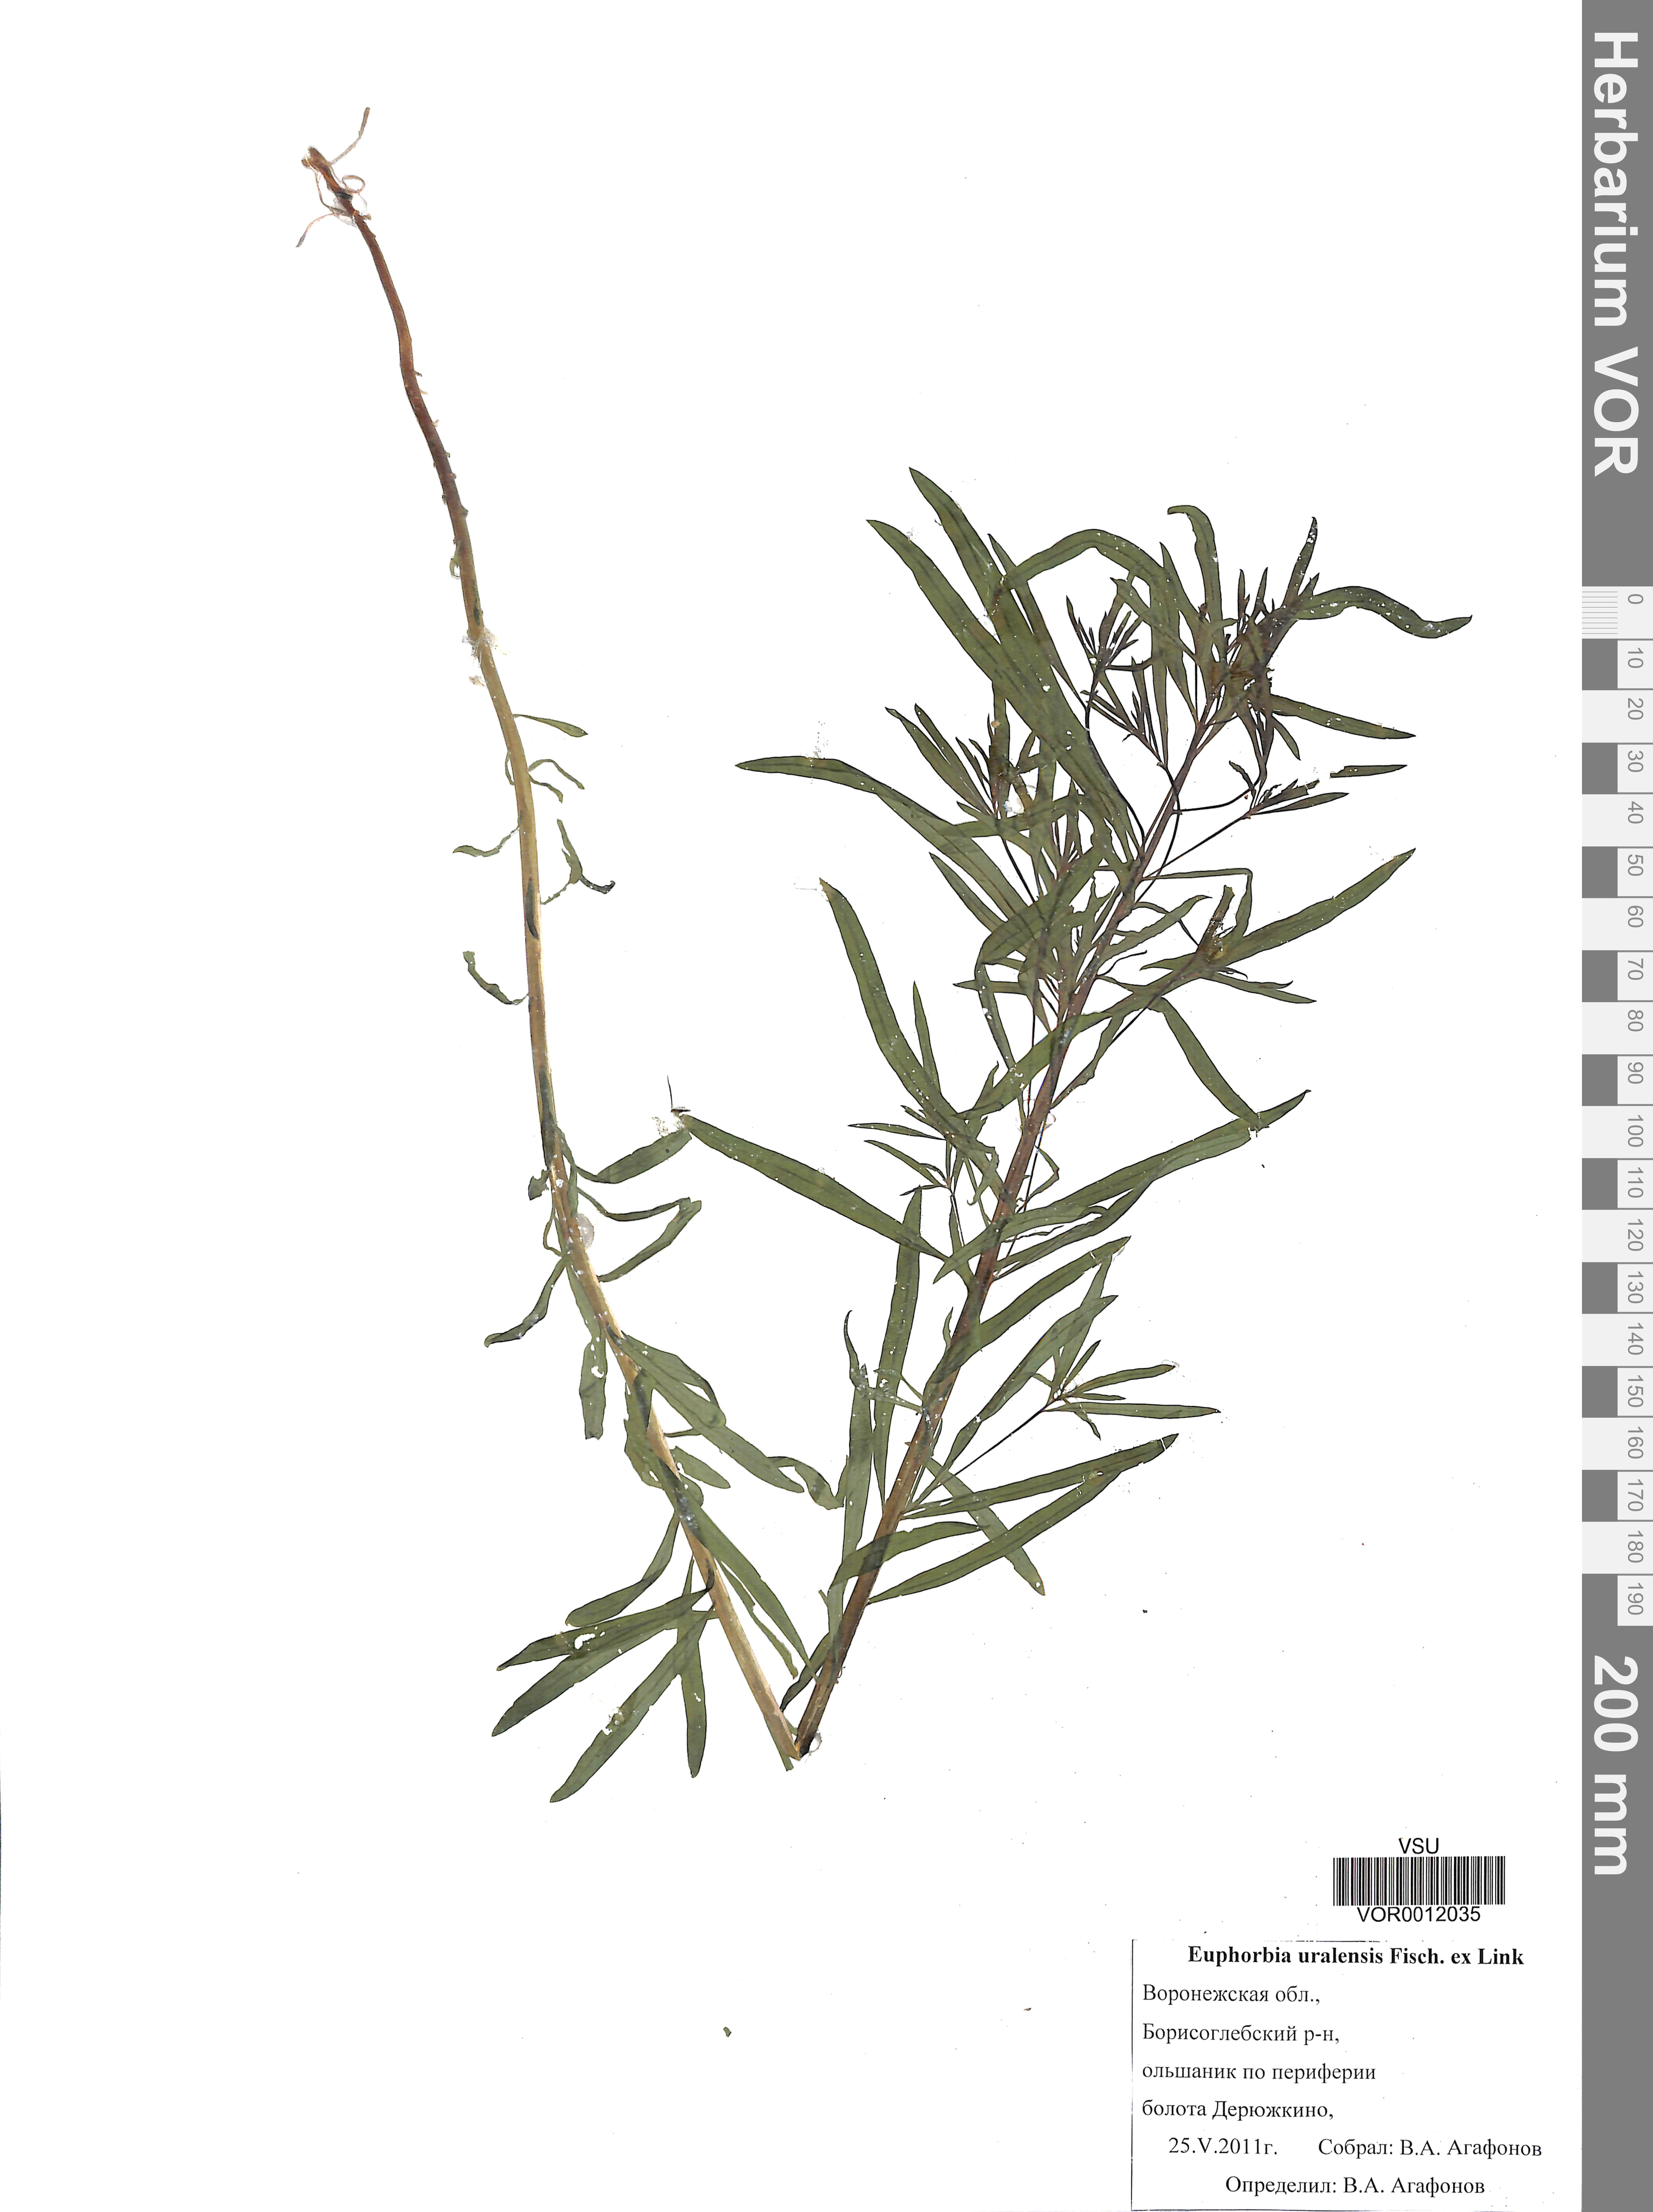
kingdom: Plantae
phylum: Tracheophyta
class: Magnoliopsida
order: Malpighiales
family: Euphorbiaceae
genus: Euphorbia
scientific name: Euphorbia uralensis
